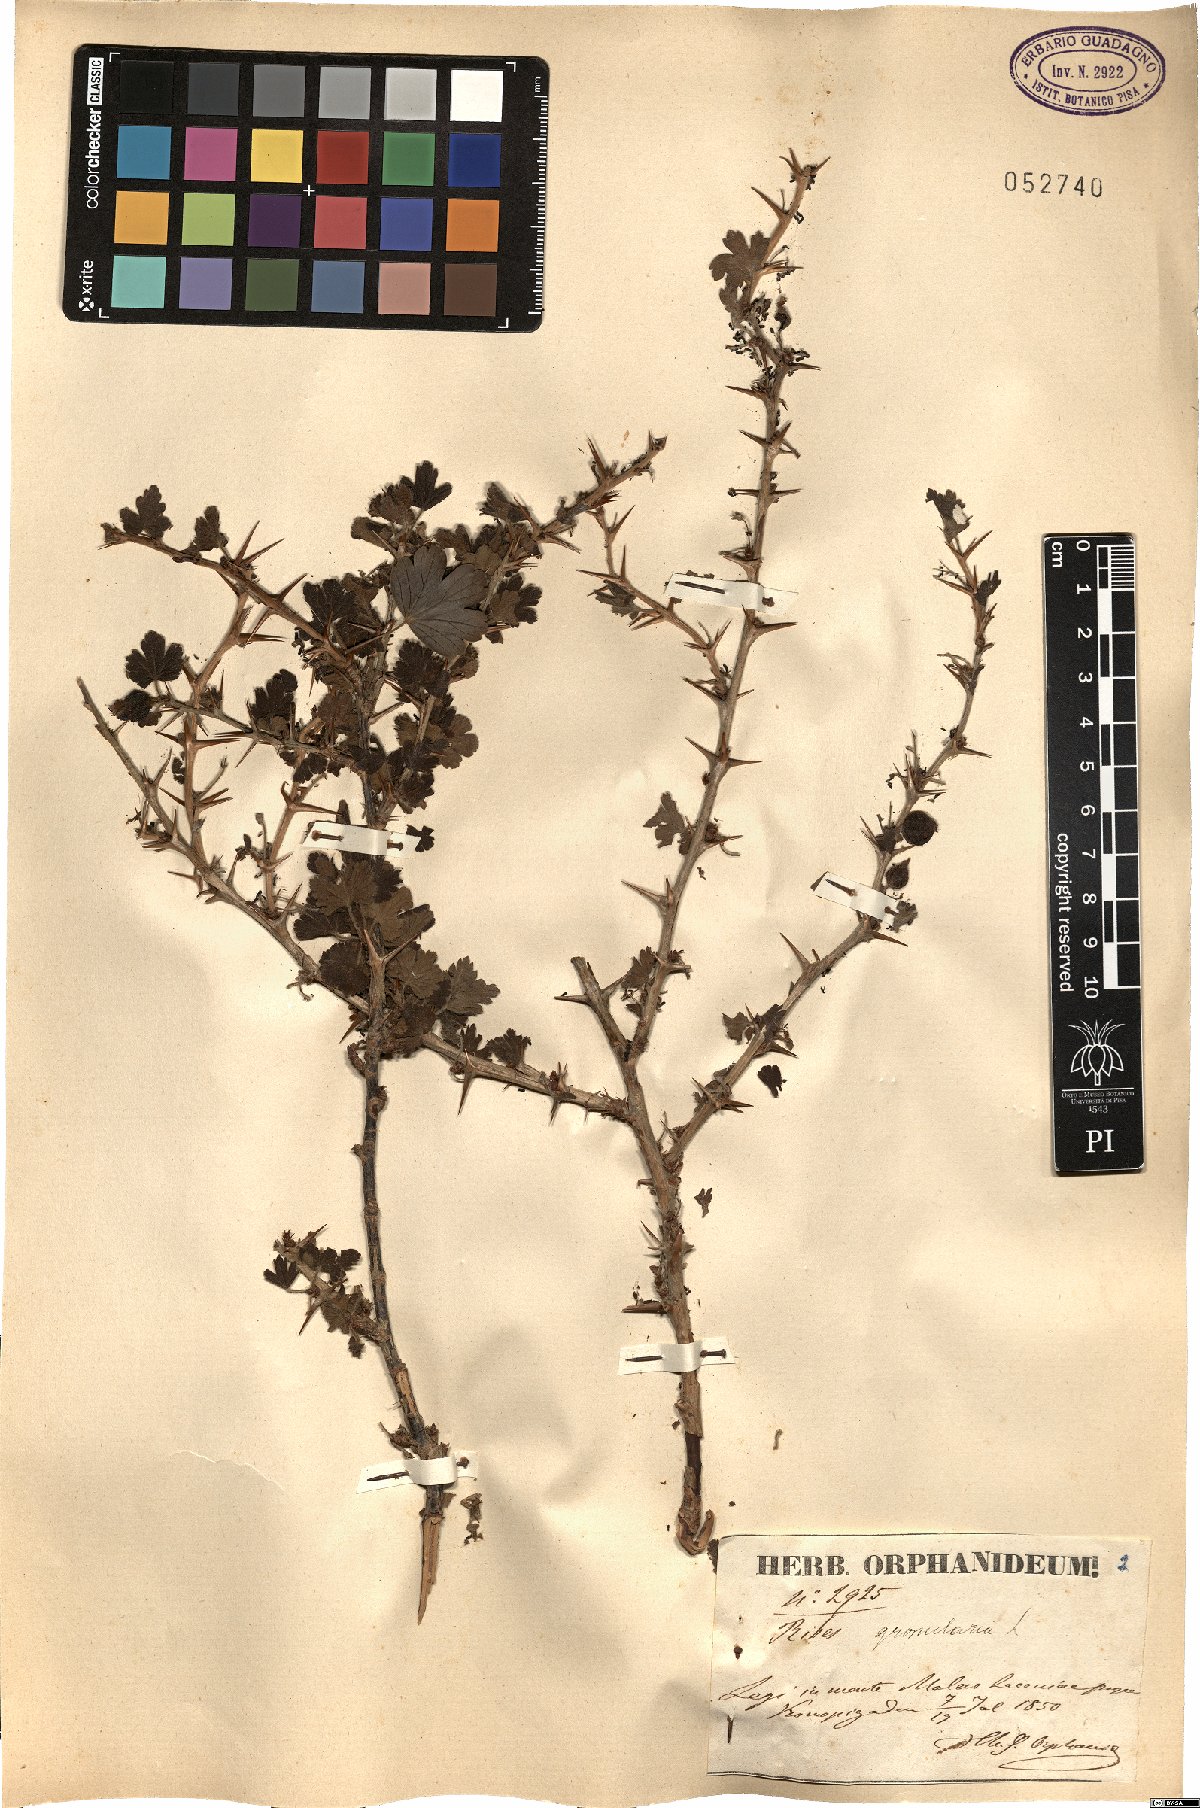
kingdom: Plantae
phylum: Tracheophyta
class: Magnoliopsida
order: Saxifragales
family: Grossulariaceae
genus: Ribes
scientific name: Ribes uva-crispa
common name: Gooseberry
